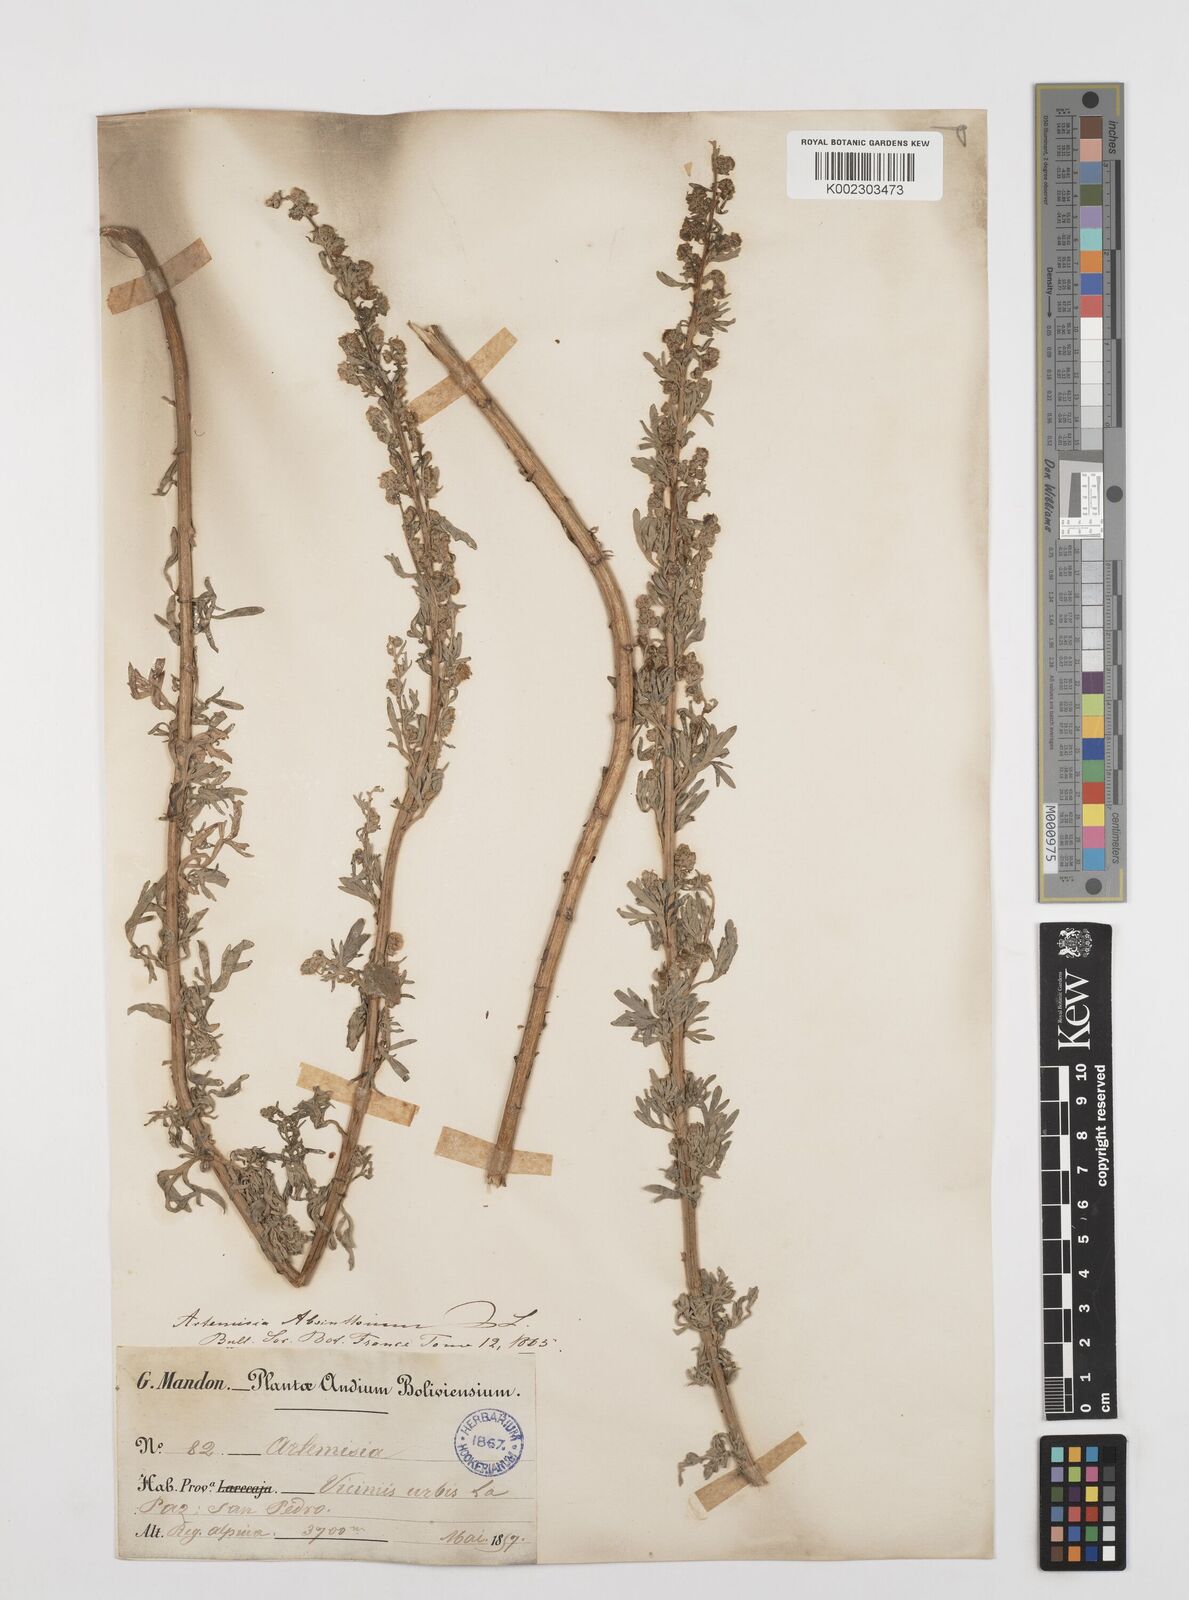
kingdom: Plantae
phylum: Tracheophyta
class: Magnoliopsida
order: Asterales
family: Asteraceae
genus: Artemisia
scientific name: Artemisia absinthium
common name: Wormwood
